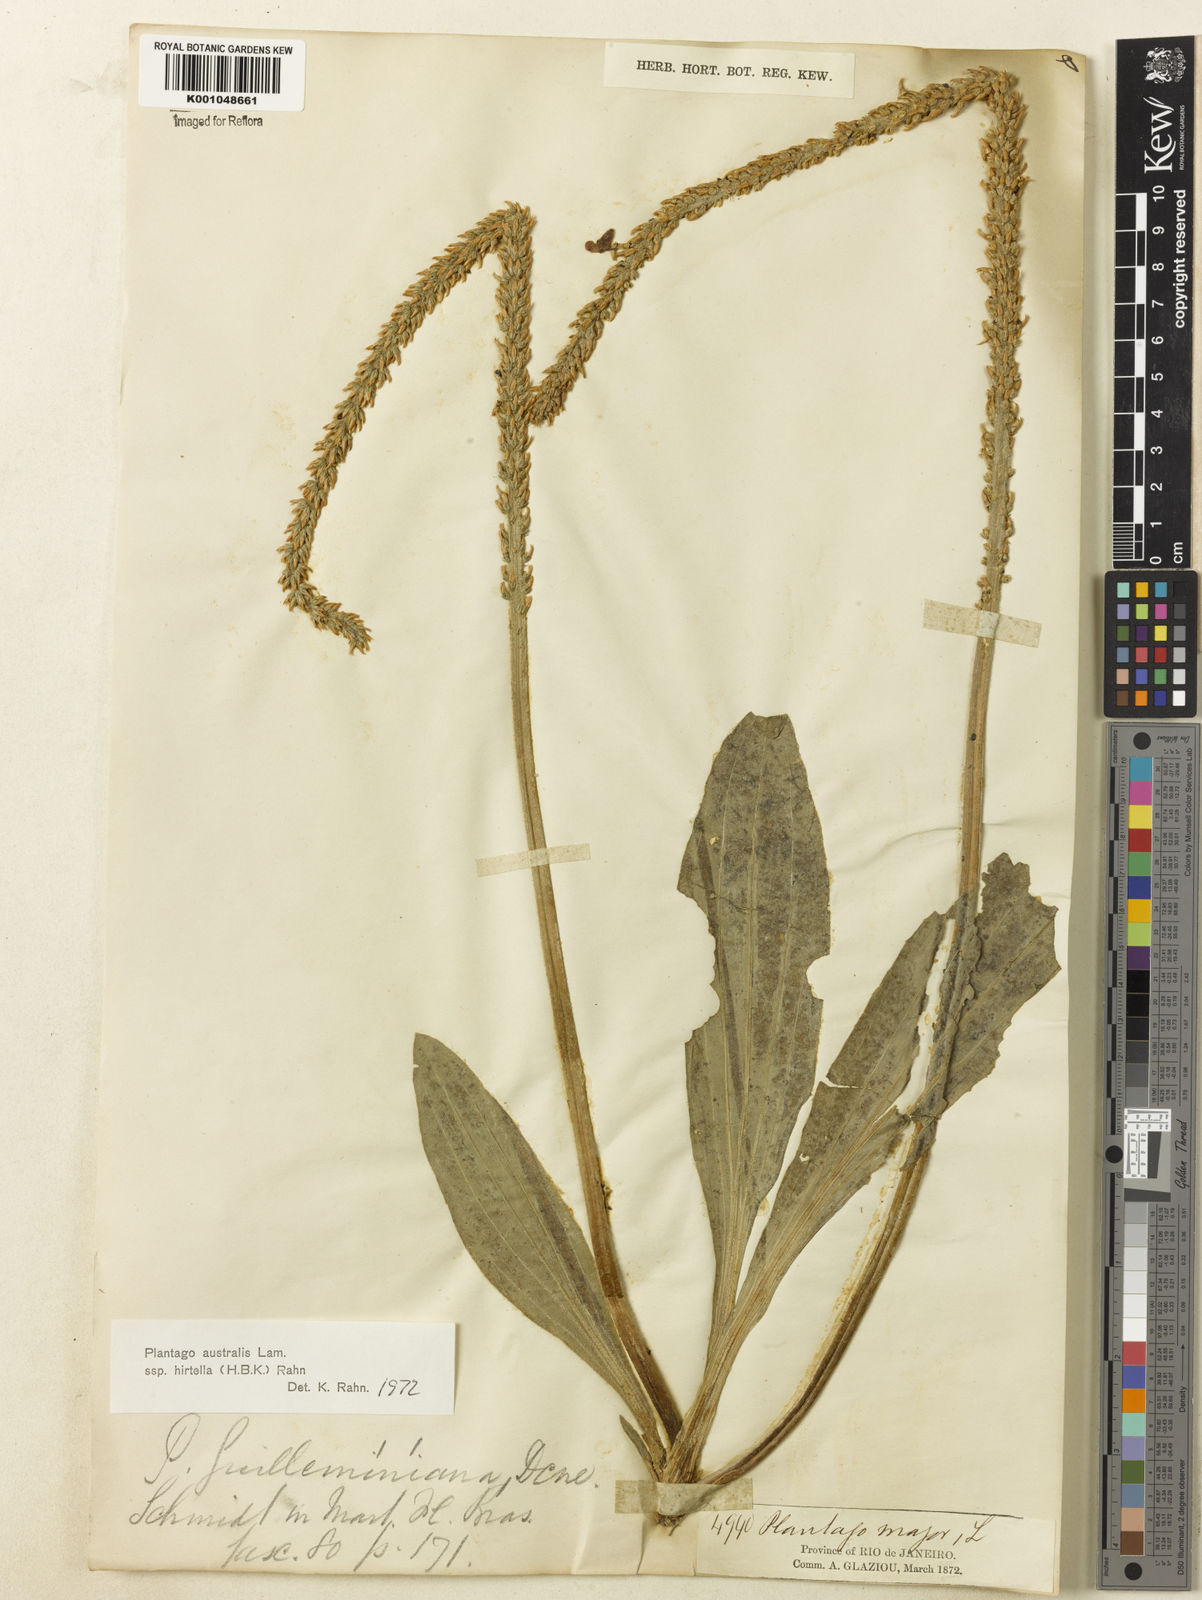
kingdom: Plantae
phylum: Tracheophyta
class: Magnoliopsida
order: Lamiales
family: Plantaginaceae
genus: Plantago
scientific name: Plantago australis
